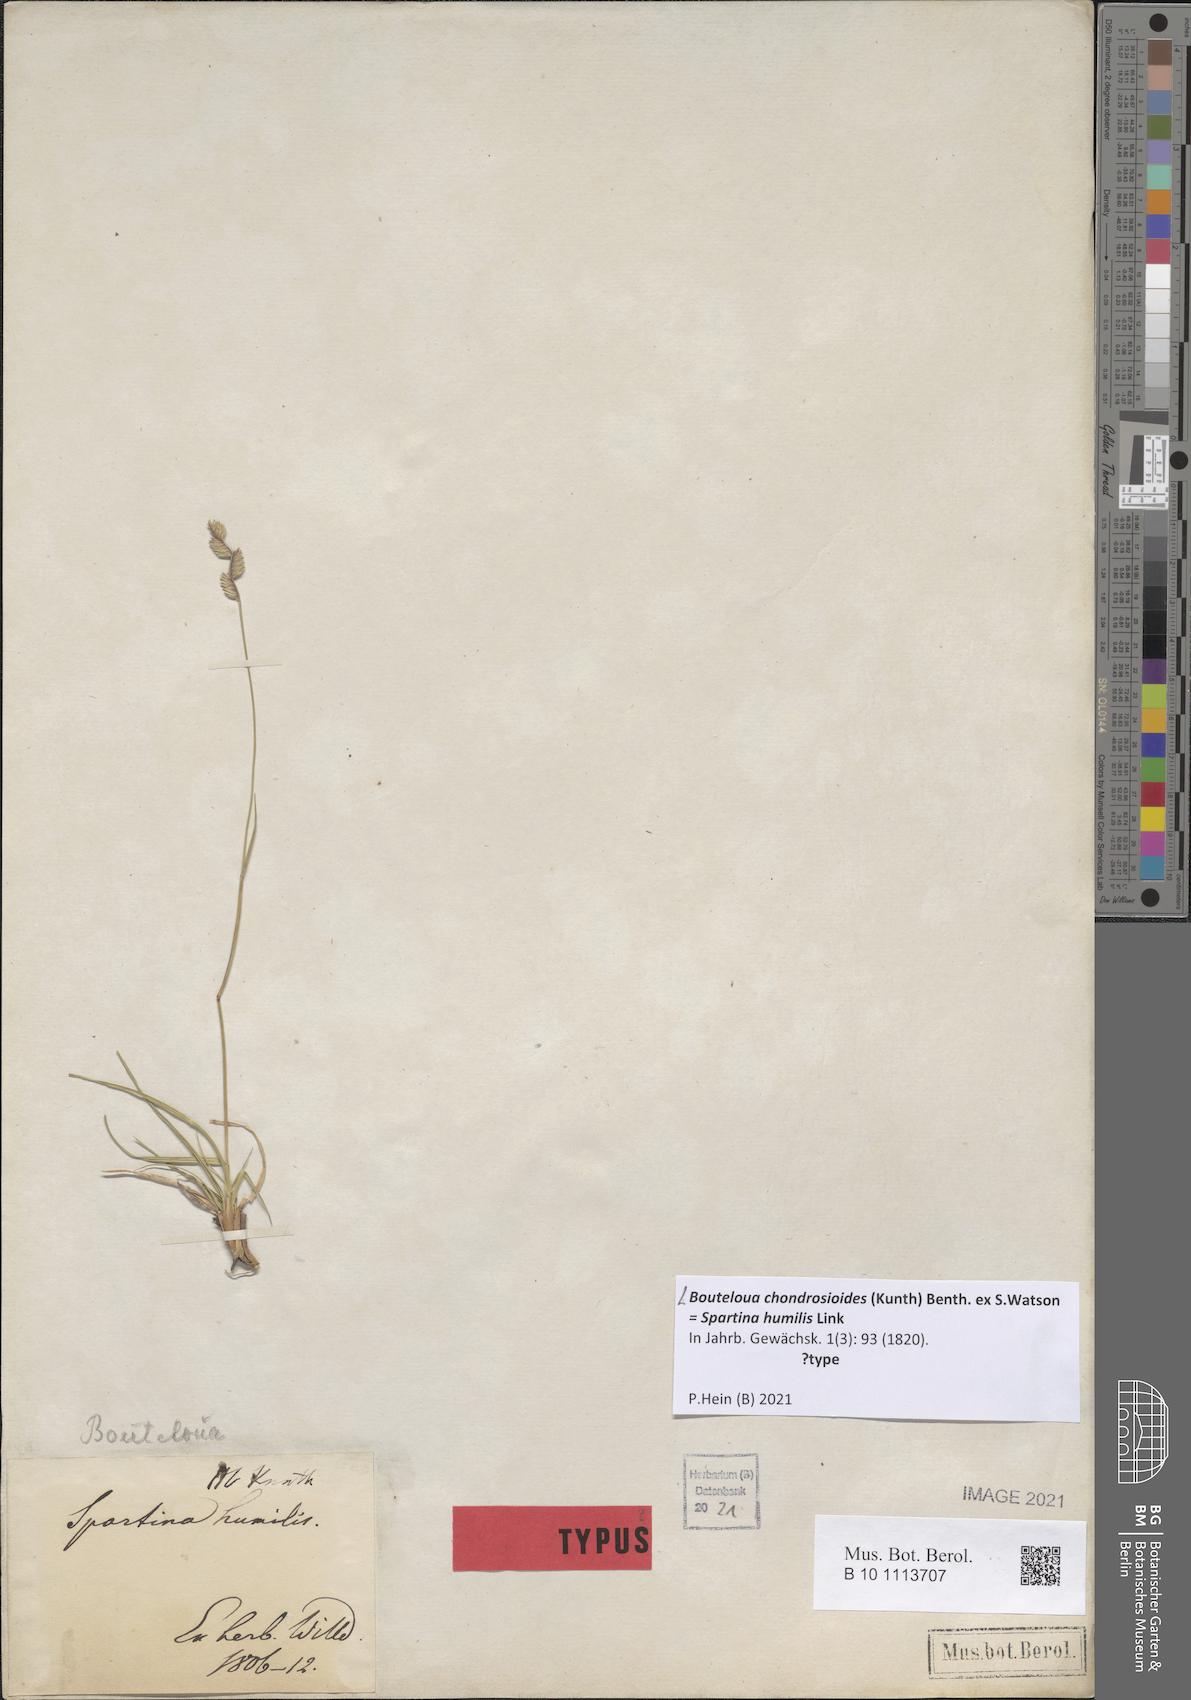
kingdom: Plantae
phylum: Tracheophyta
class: Liliopsida
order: Poales
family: Poaceae
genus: Bouteloua
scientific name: Bouteloua chondrosioides
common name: Sprucetop grama
